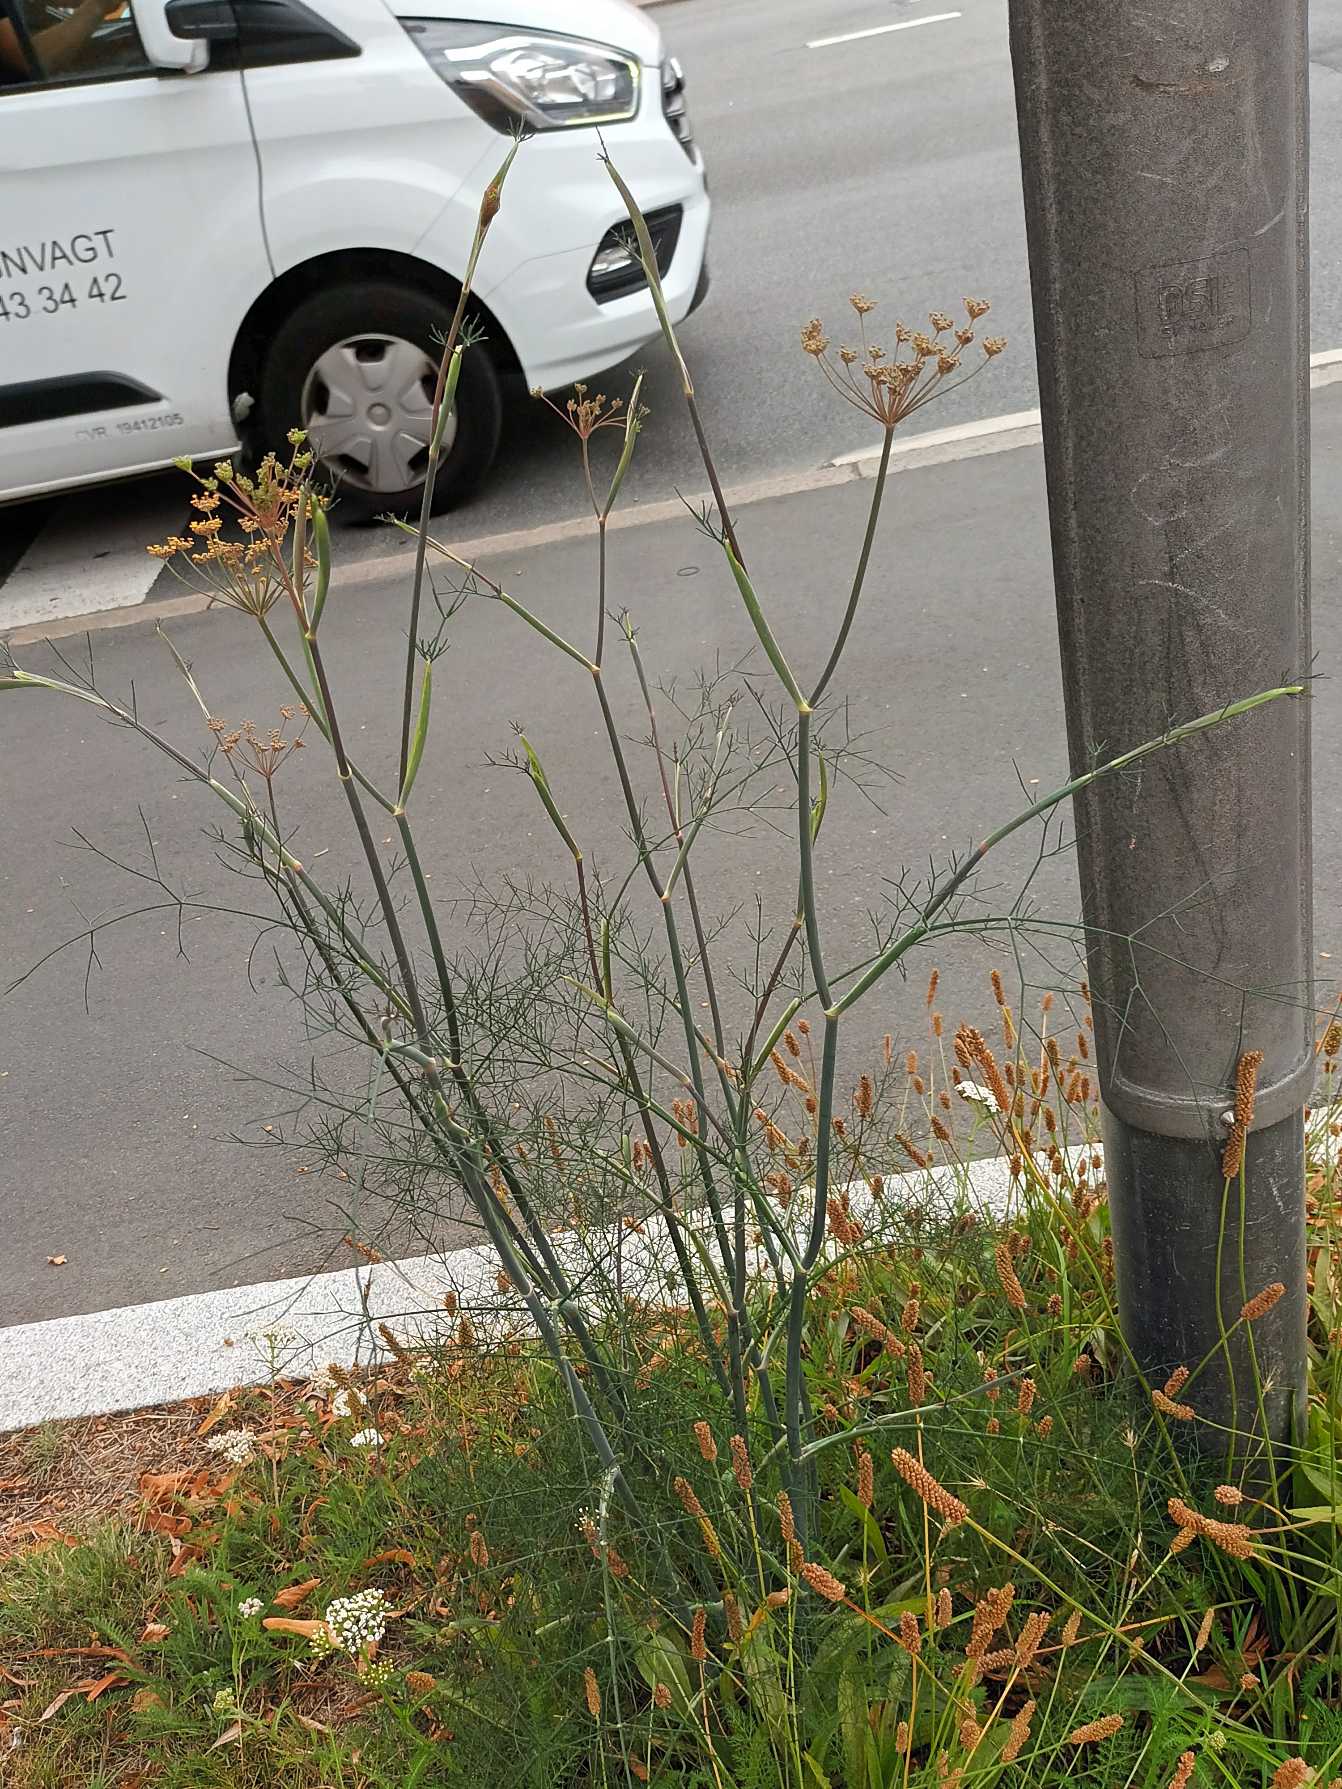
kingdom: Plantae
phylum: Tracheophyta
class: Magnoliopsida
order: Apiales
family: Apiaceae
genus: Anethum
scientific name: Anethum graveolens
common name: Dild
